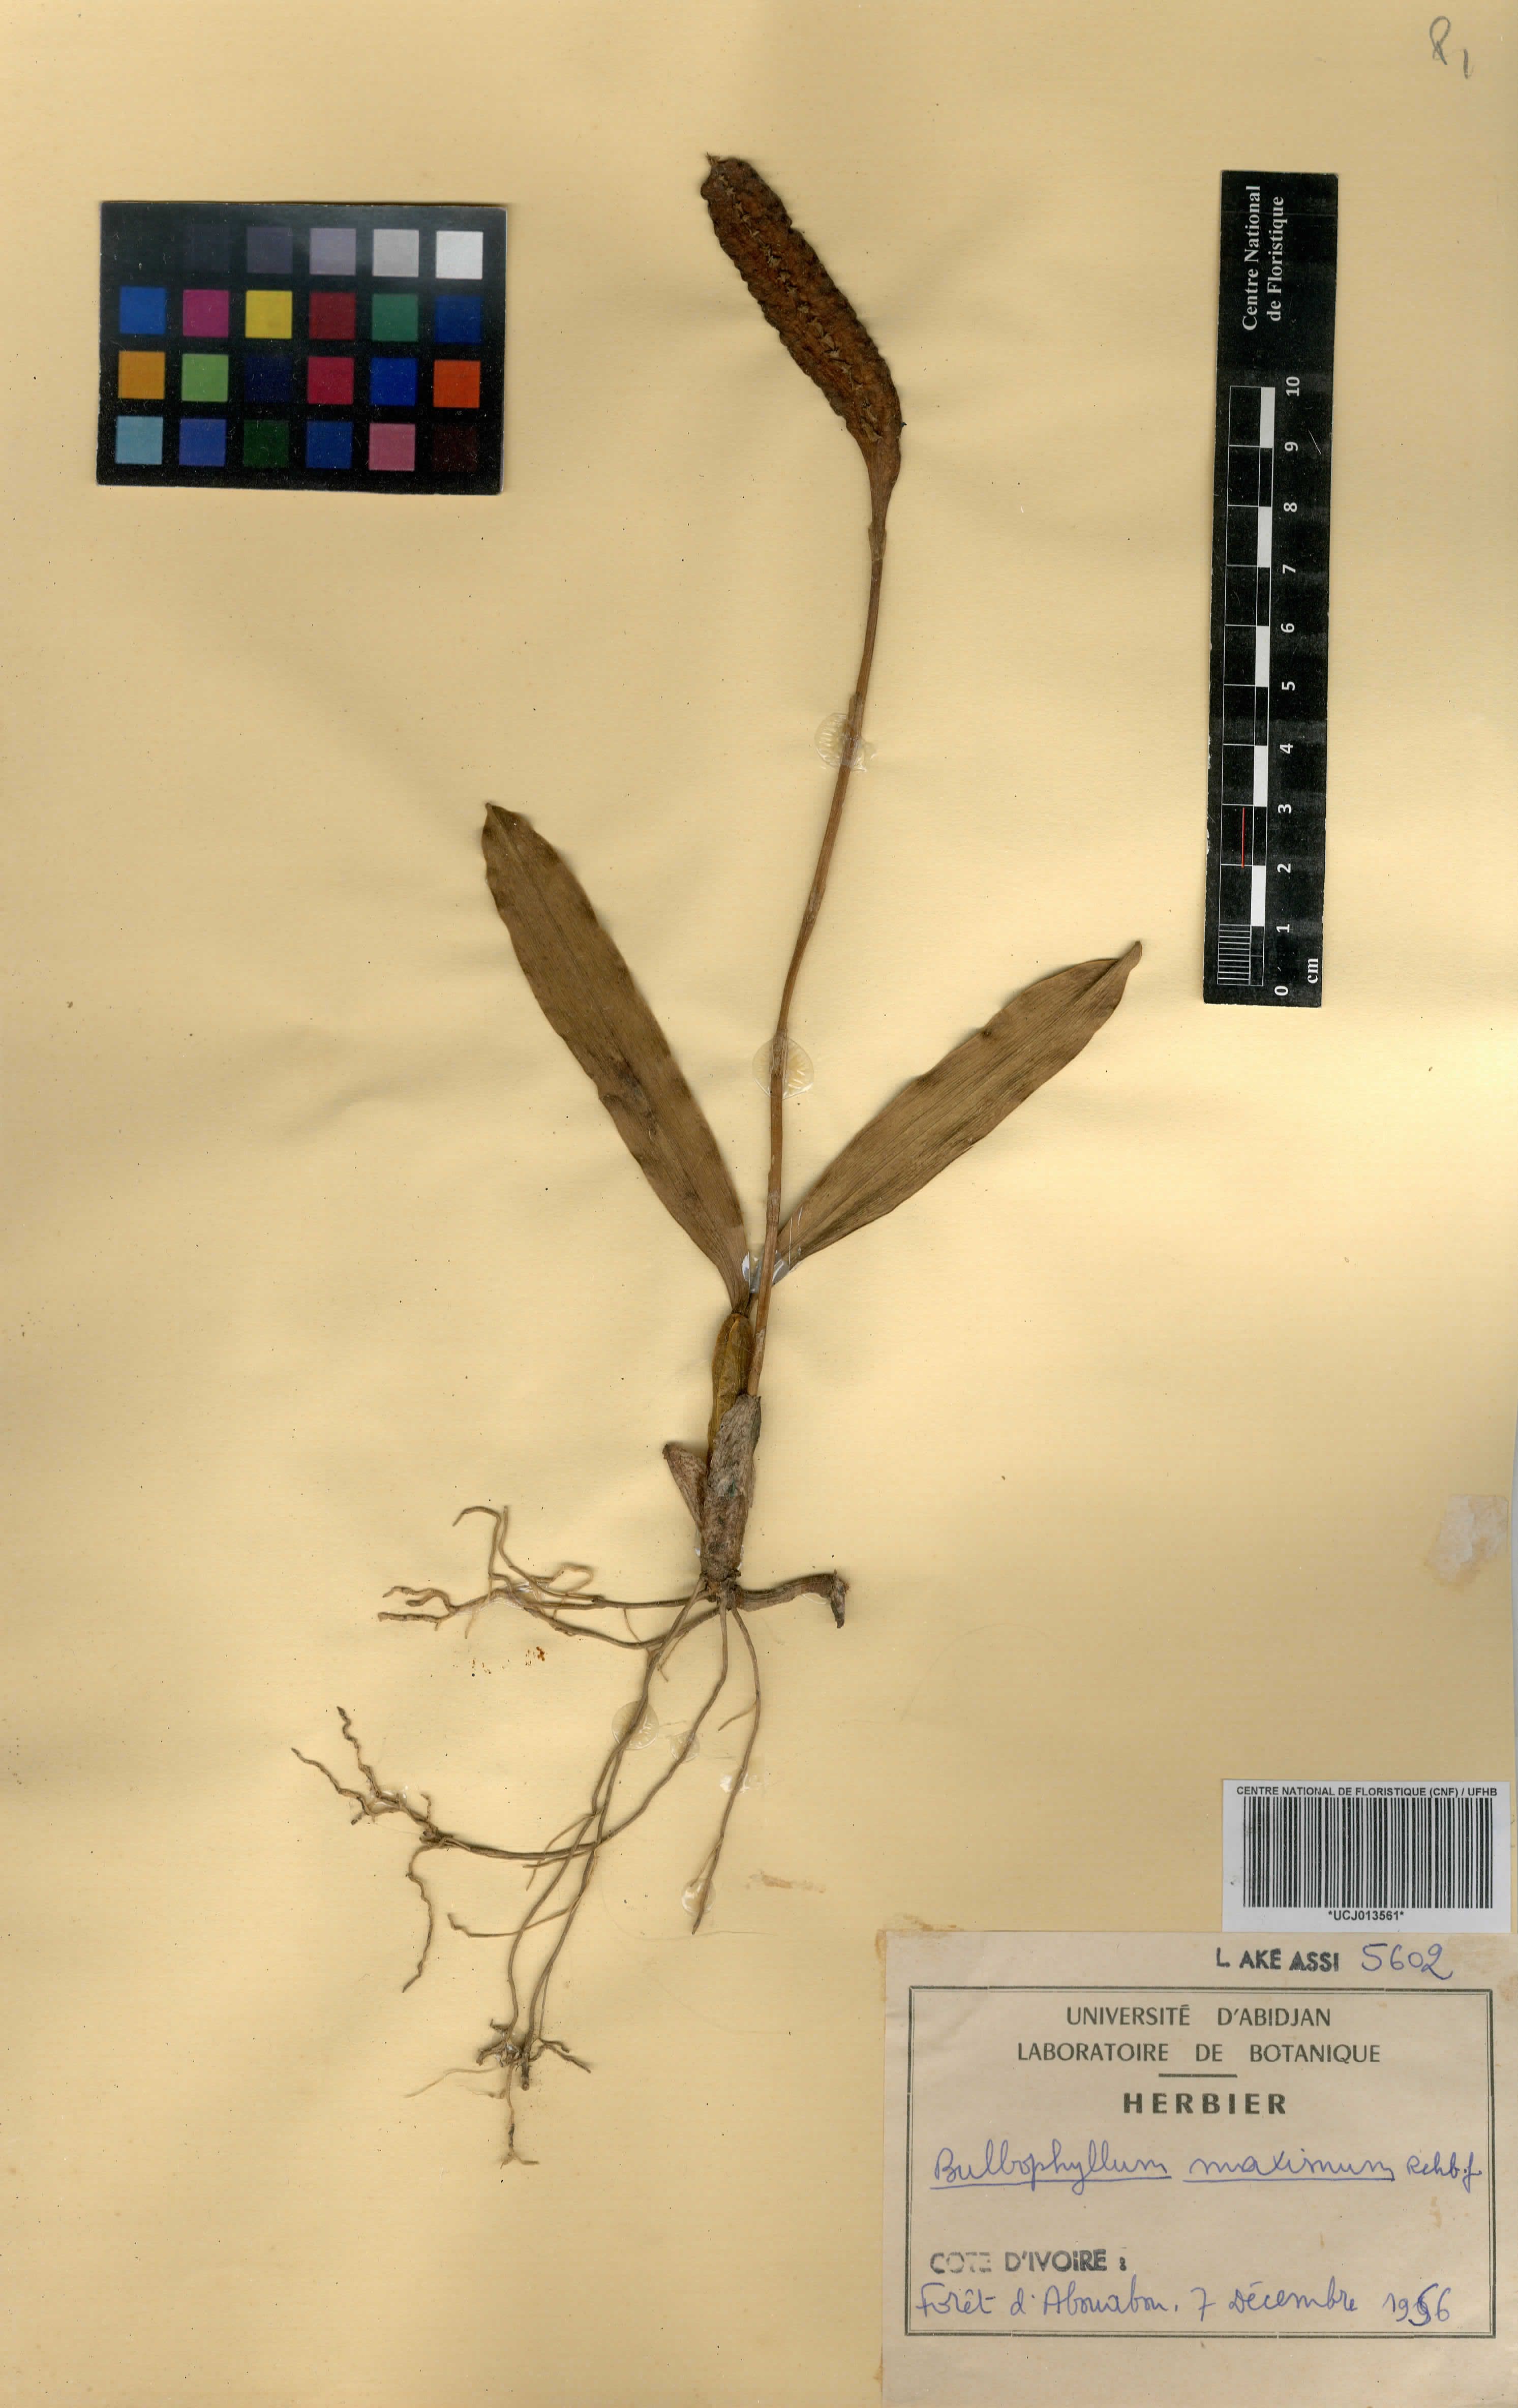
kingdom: Plantae
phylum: Tracheophyta
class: Liliopsida
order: Asparagales
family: Orchidaceae
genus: Bulbophyllum
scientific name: Bulbophyllum maximum
